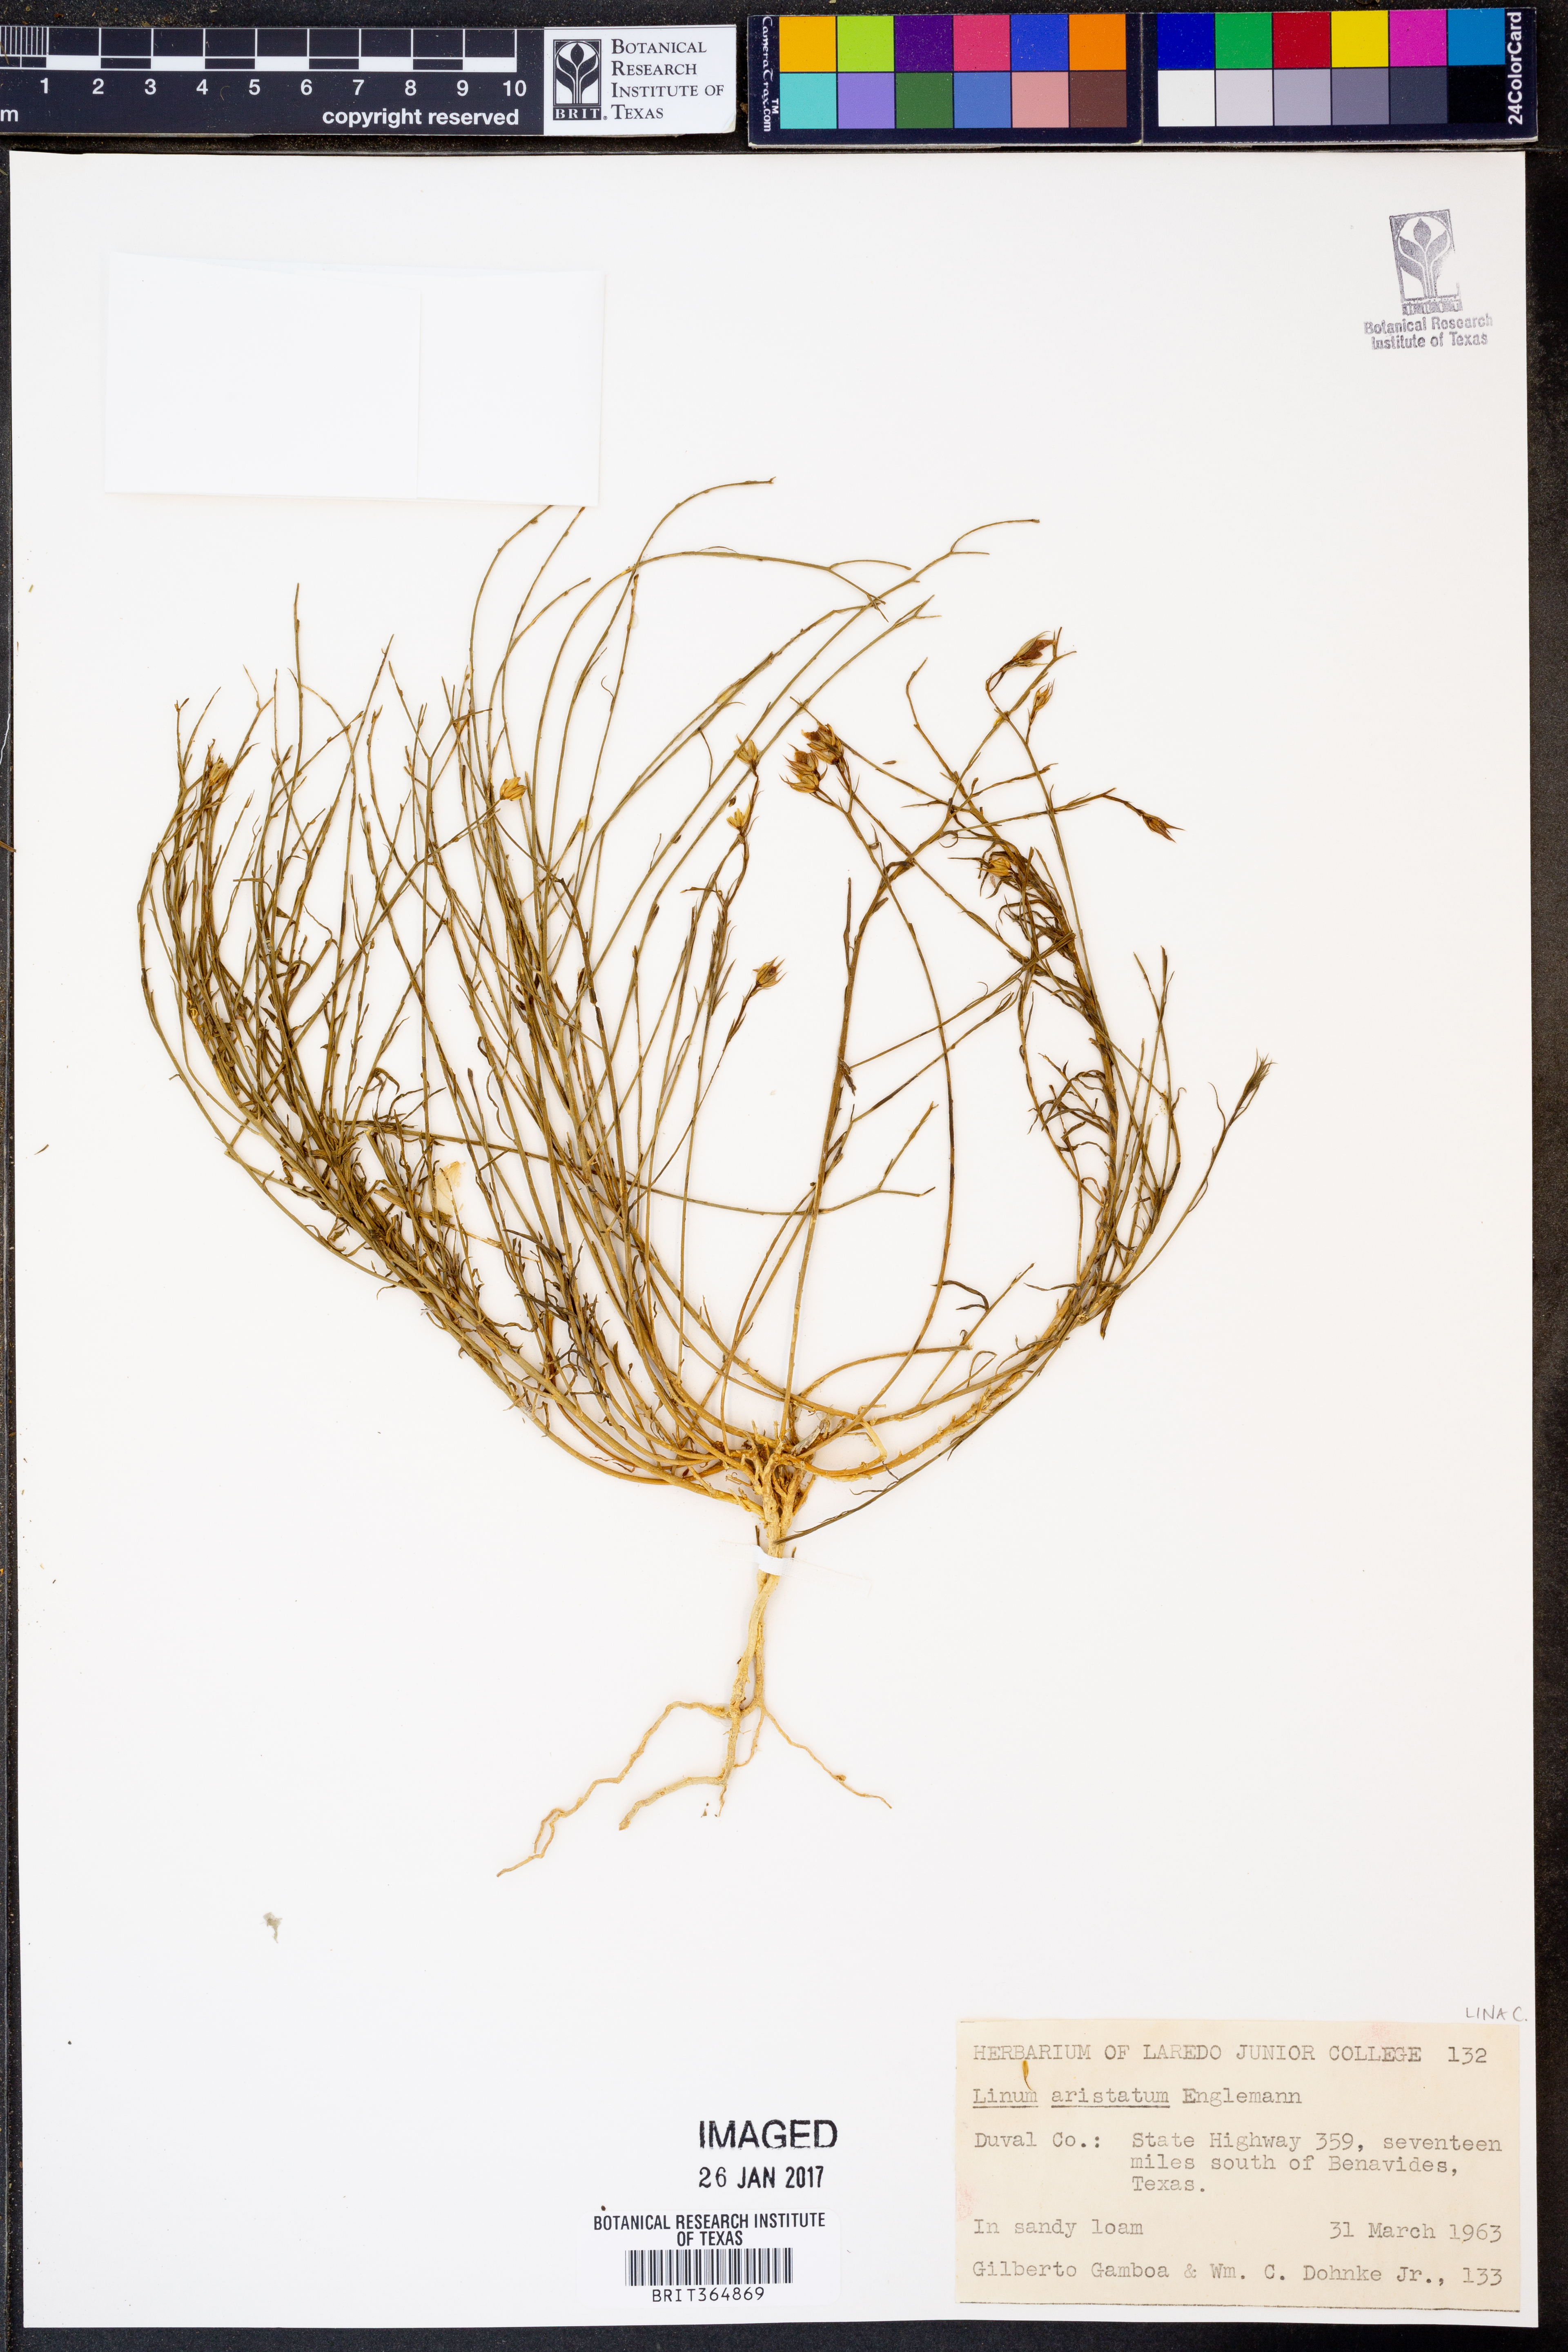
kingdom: Plantae
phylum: Tracheophyta
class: Magnoliopsida
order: Malpighiales
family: Linaceae
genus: Linum
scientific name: Linum aristatum
